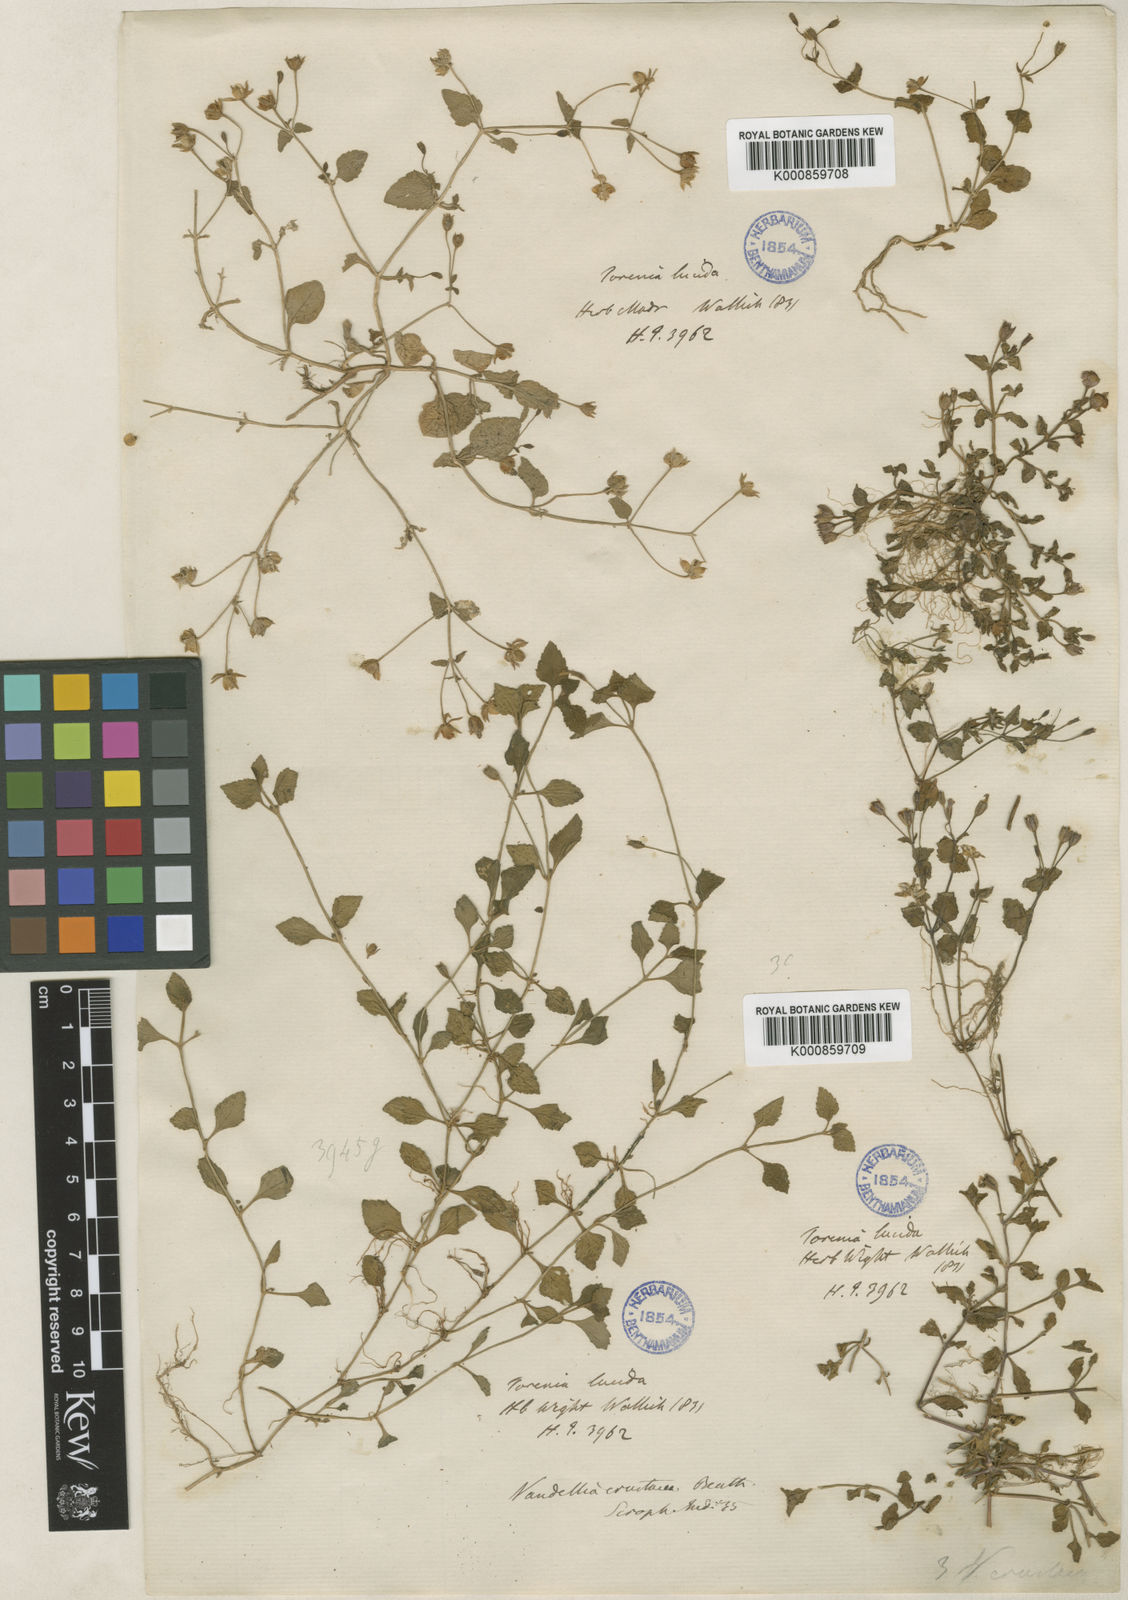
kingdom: Plantae
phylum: Tracheophyta
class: Magnoliopsida
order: Lamiales
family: Linderniaceae
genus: Torenia
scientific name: Torenia crustacea
